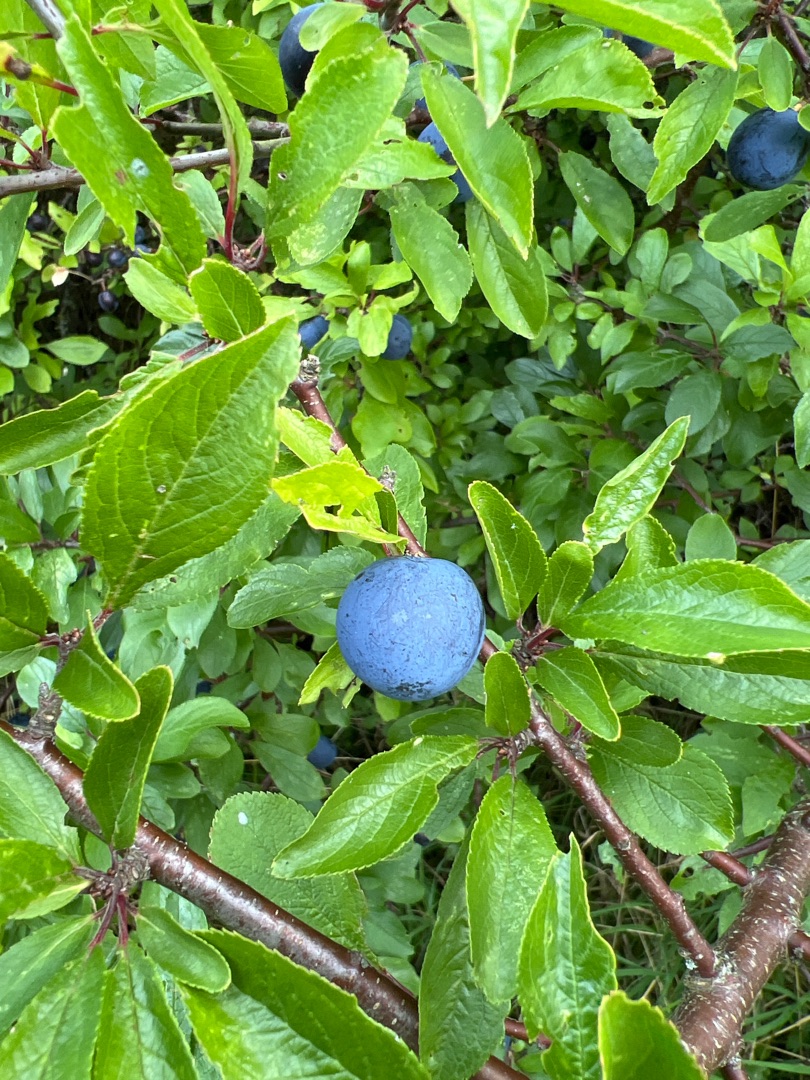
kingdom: Plantae
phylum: Tracheophyta
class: Magnoliopsida
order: Rosales
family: Rosaceae
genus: Prunus
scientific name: Prunus spinosa
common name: Slåen
